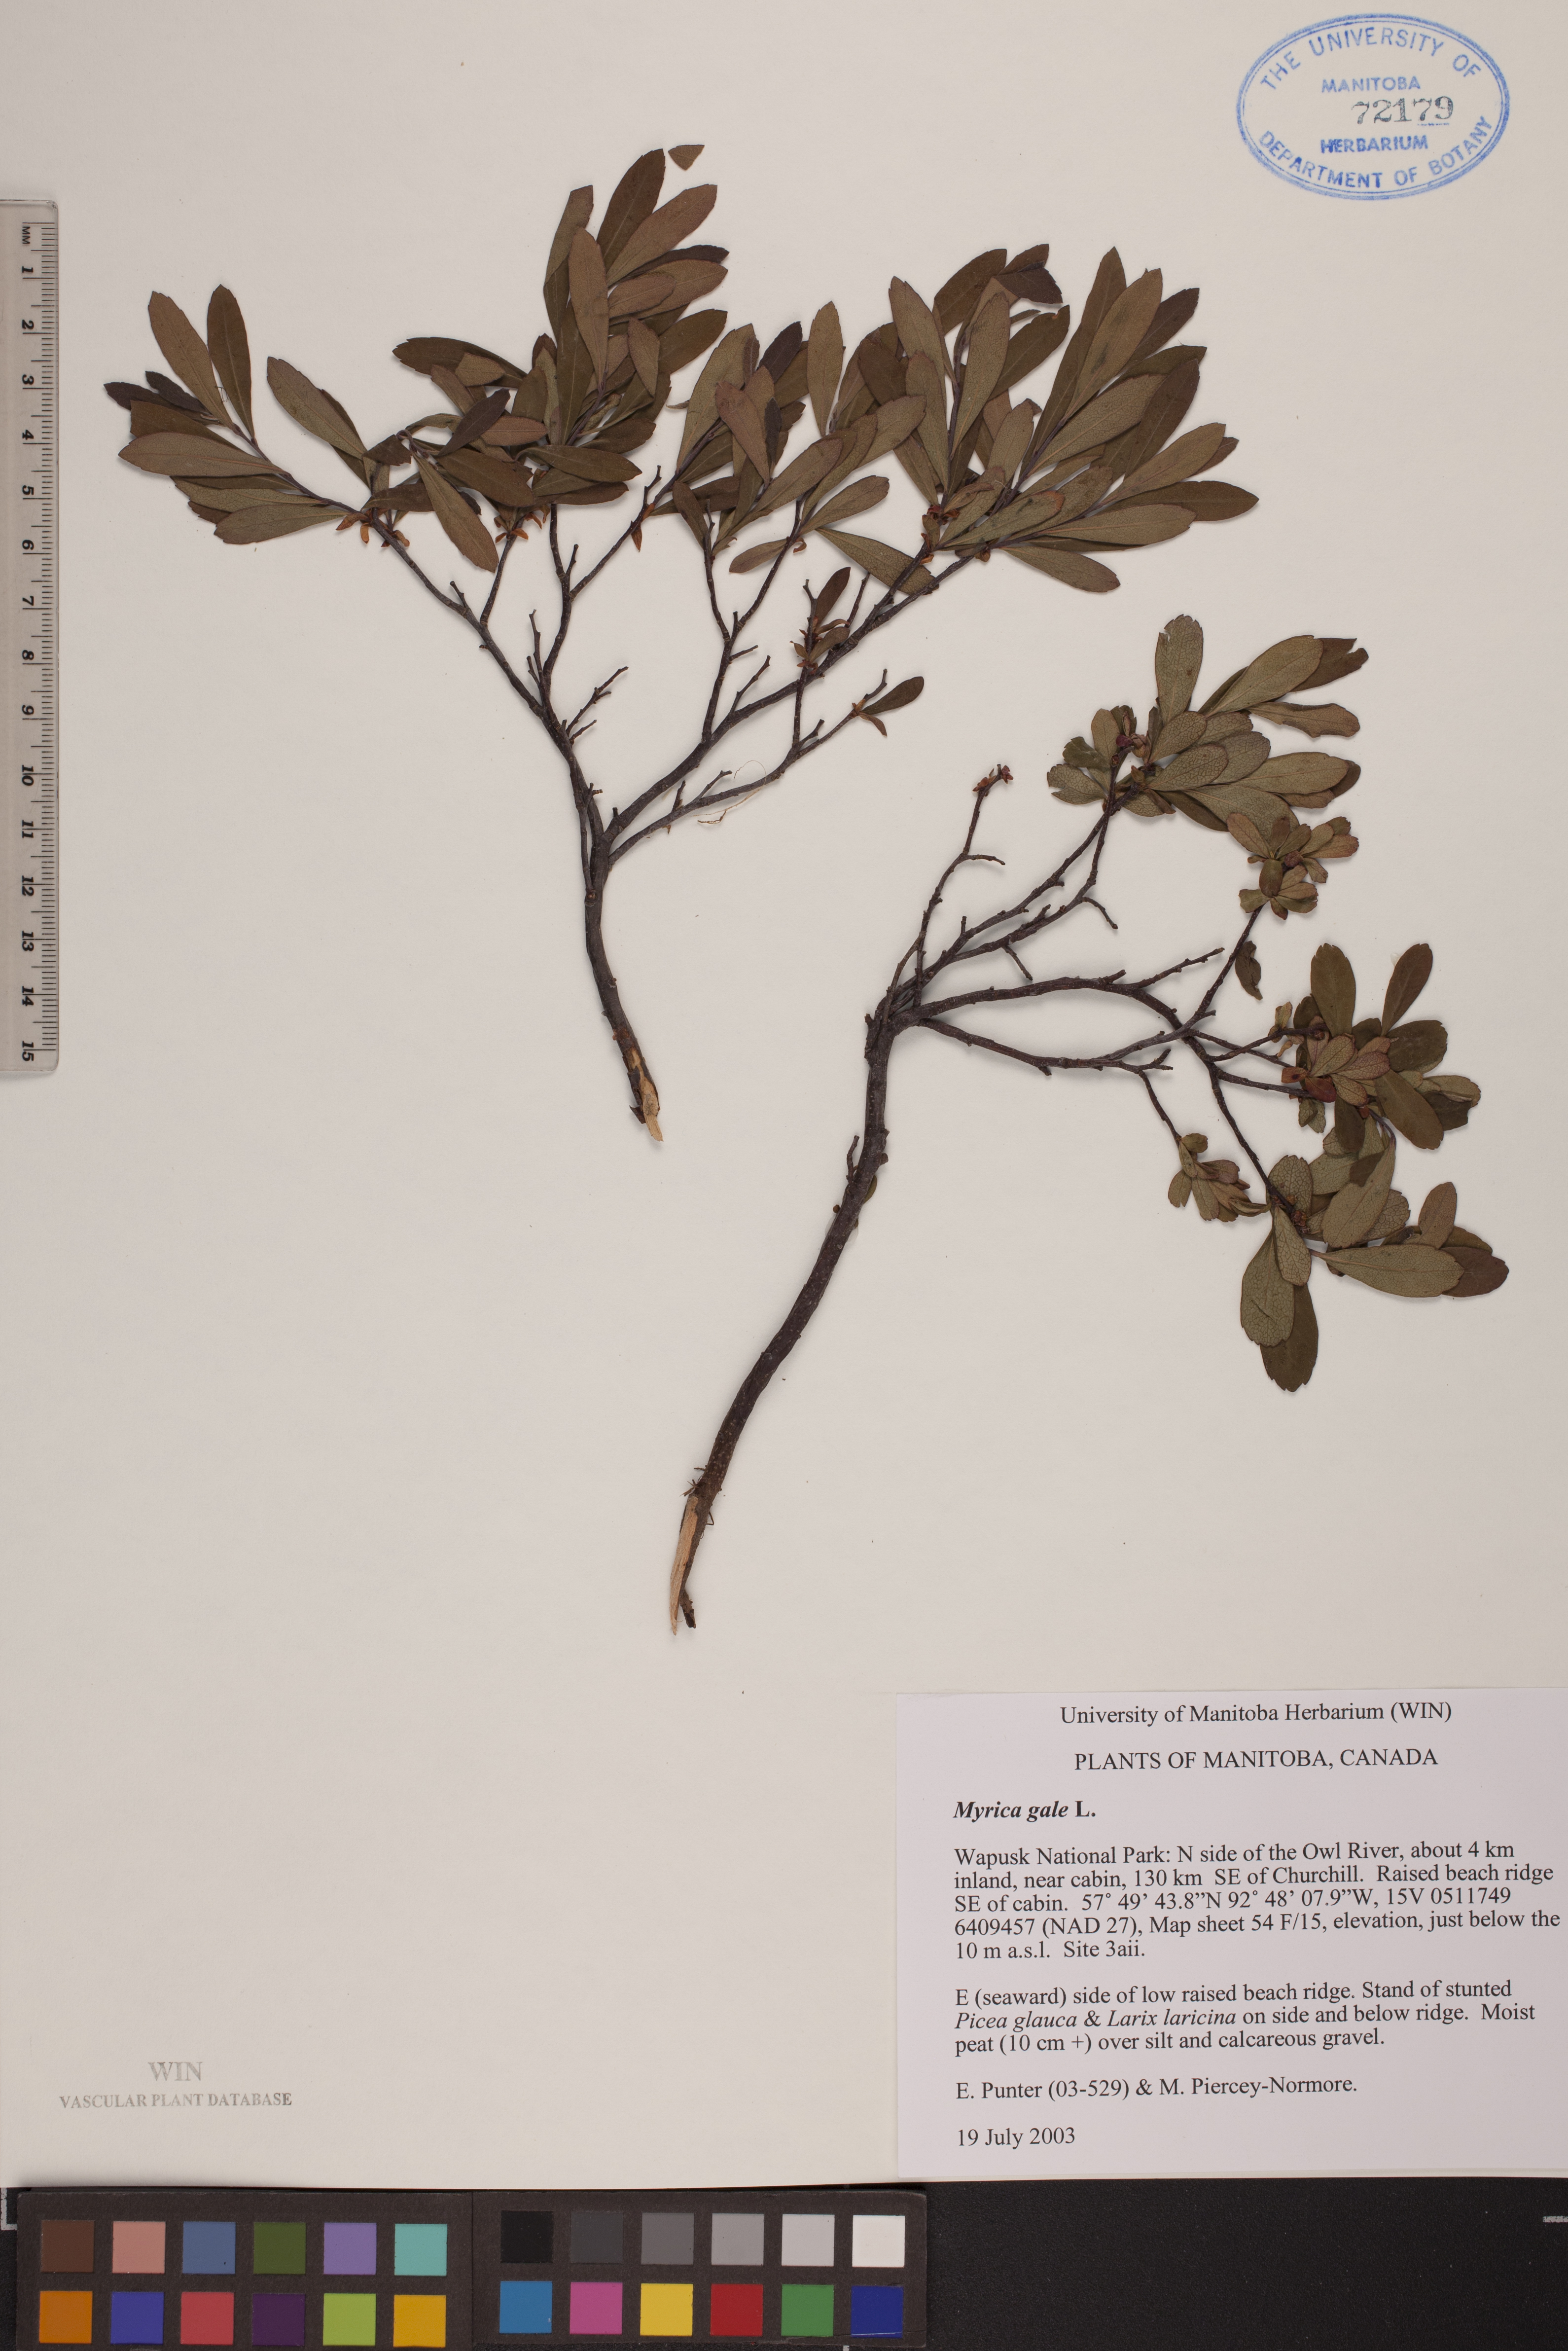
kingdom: Plantae
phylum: Tracheophyta
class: Magnoliopsida
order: Fagales
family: Myricaceae
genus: Myrica
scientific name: Myrica gale
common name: Sweet gale
